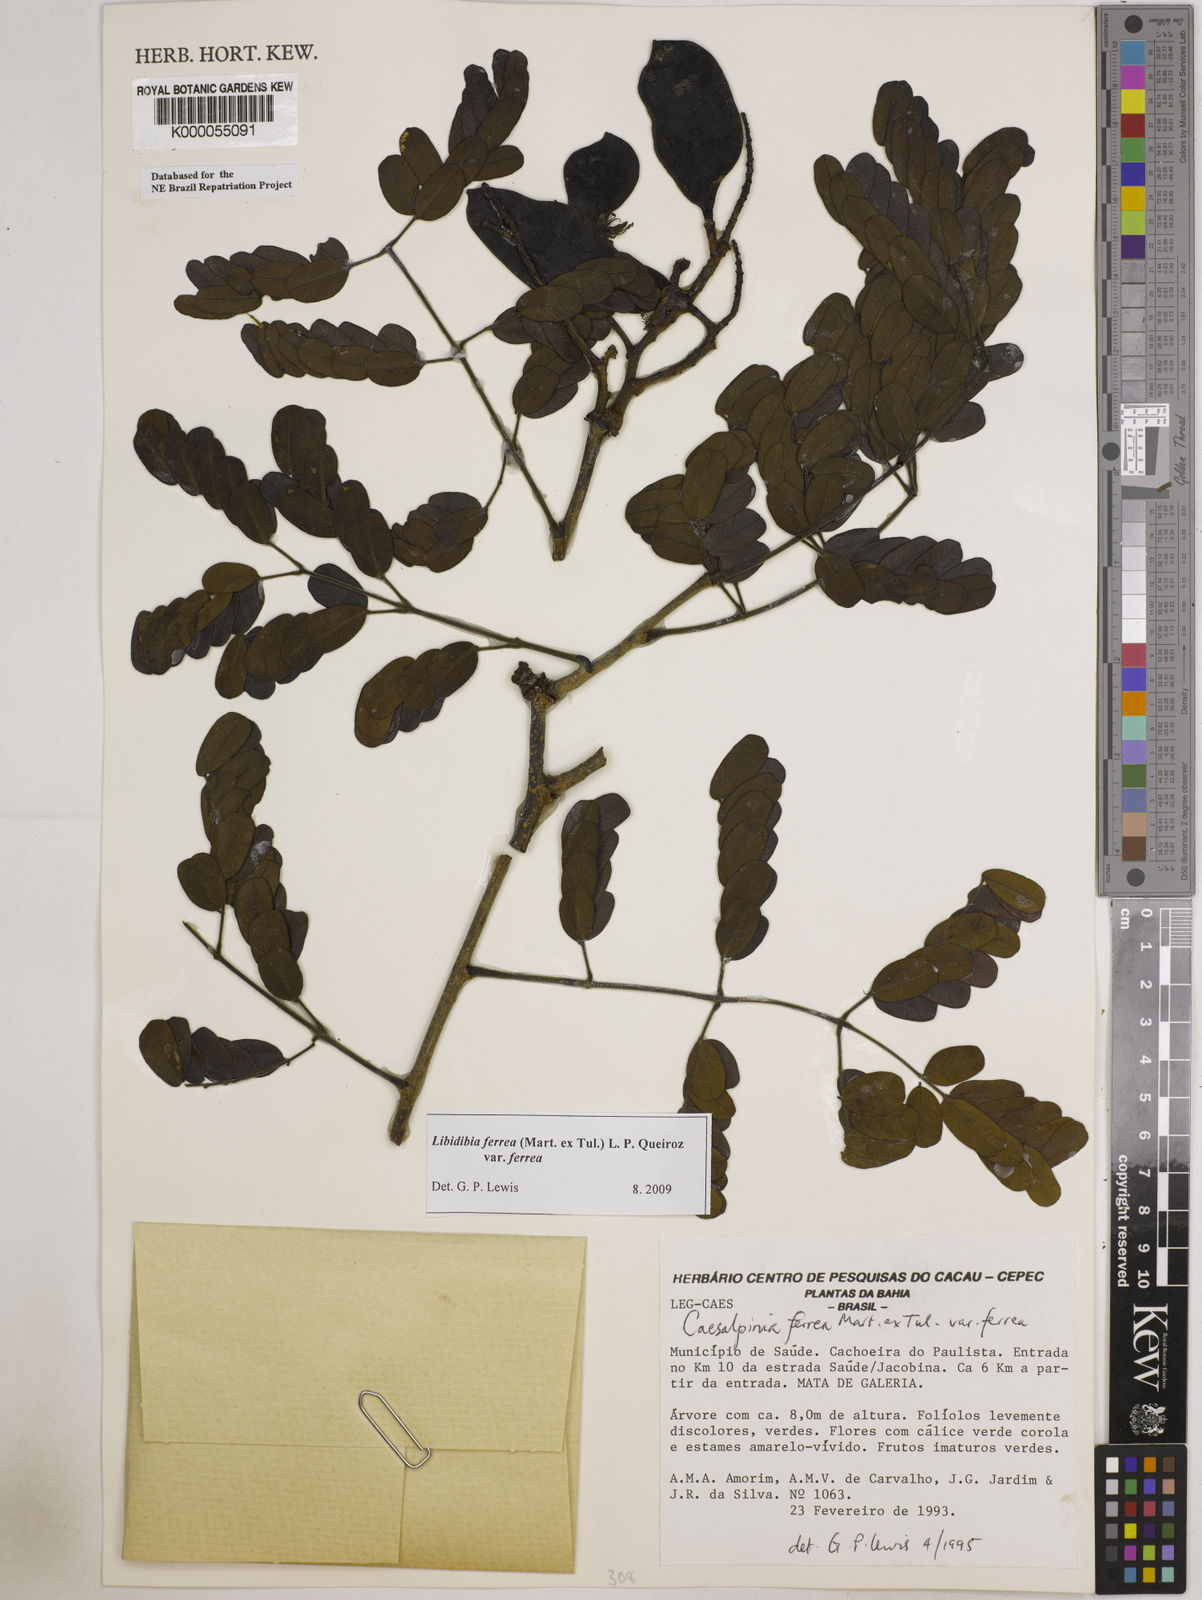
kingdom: Plantae
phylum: Tracheophyta
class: Magnoliopsida
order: Fabales
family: Fabaceae
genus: Libidibia
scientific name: Libidibia ferrea
